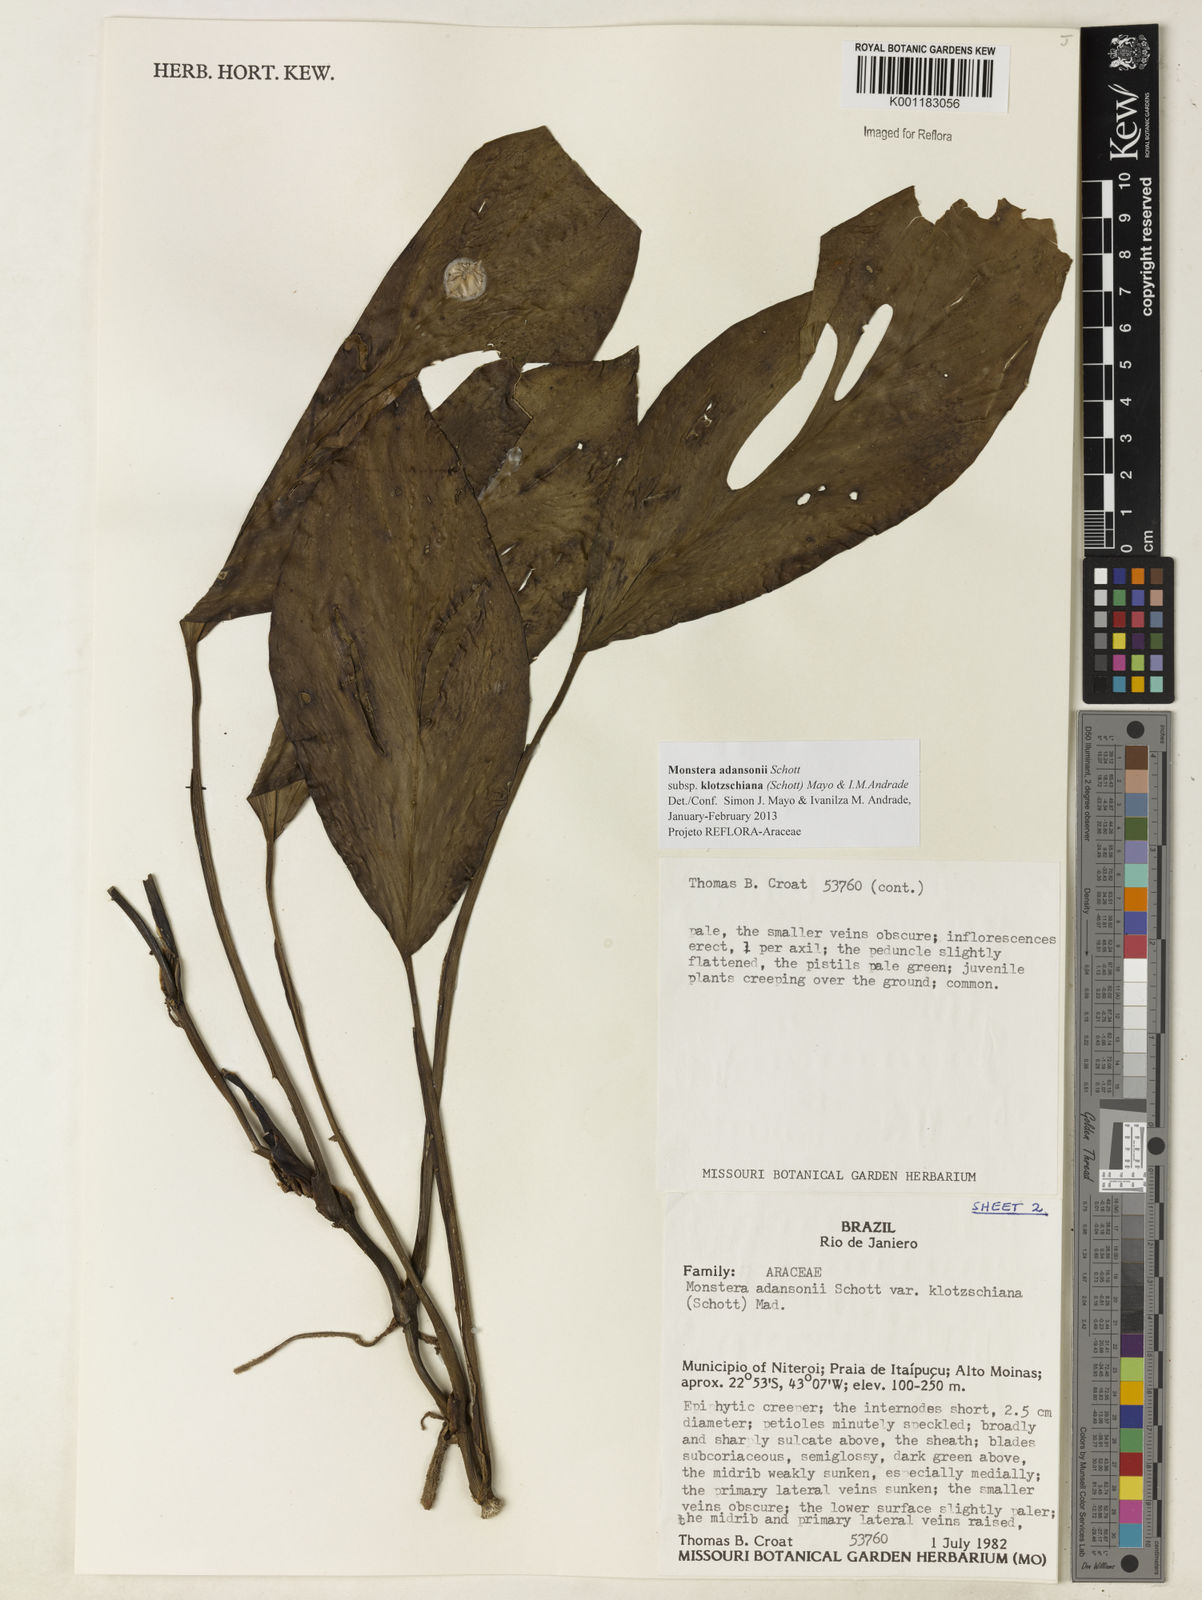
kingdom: Plantae
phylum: Tracheophyta
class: Liliopsida
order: Alismatales
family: Araceae
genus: Monstera
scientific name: Monstera adansonii
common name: Tarovine
